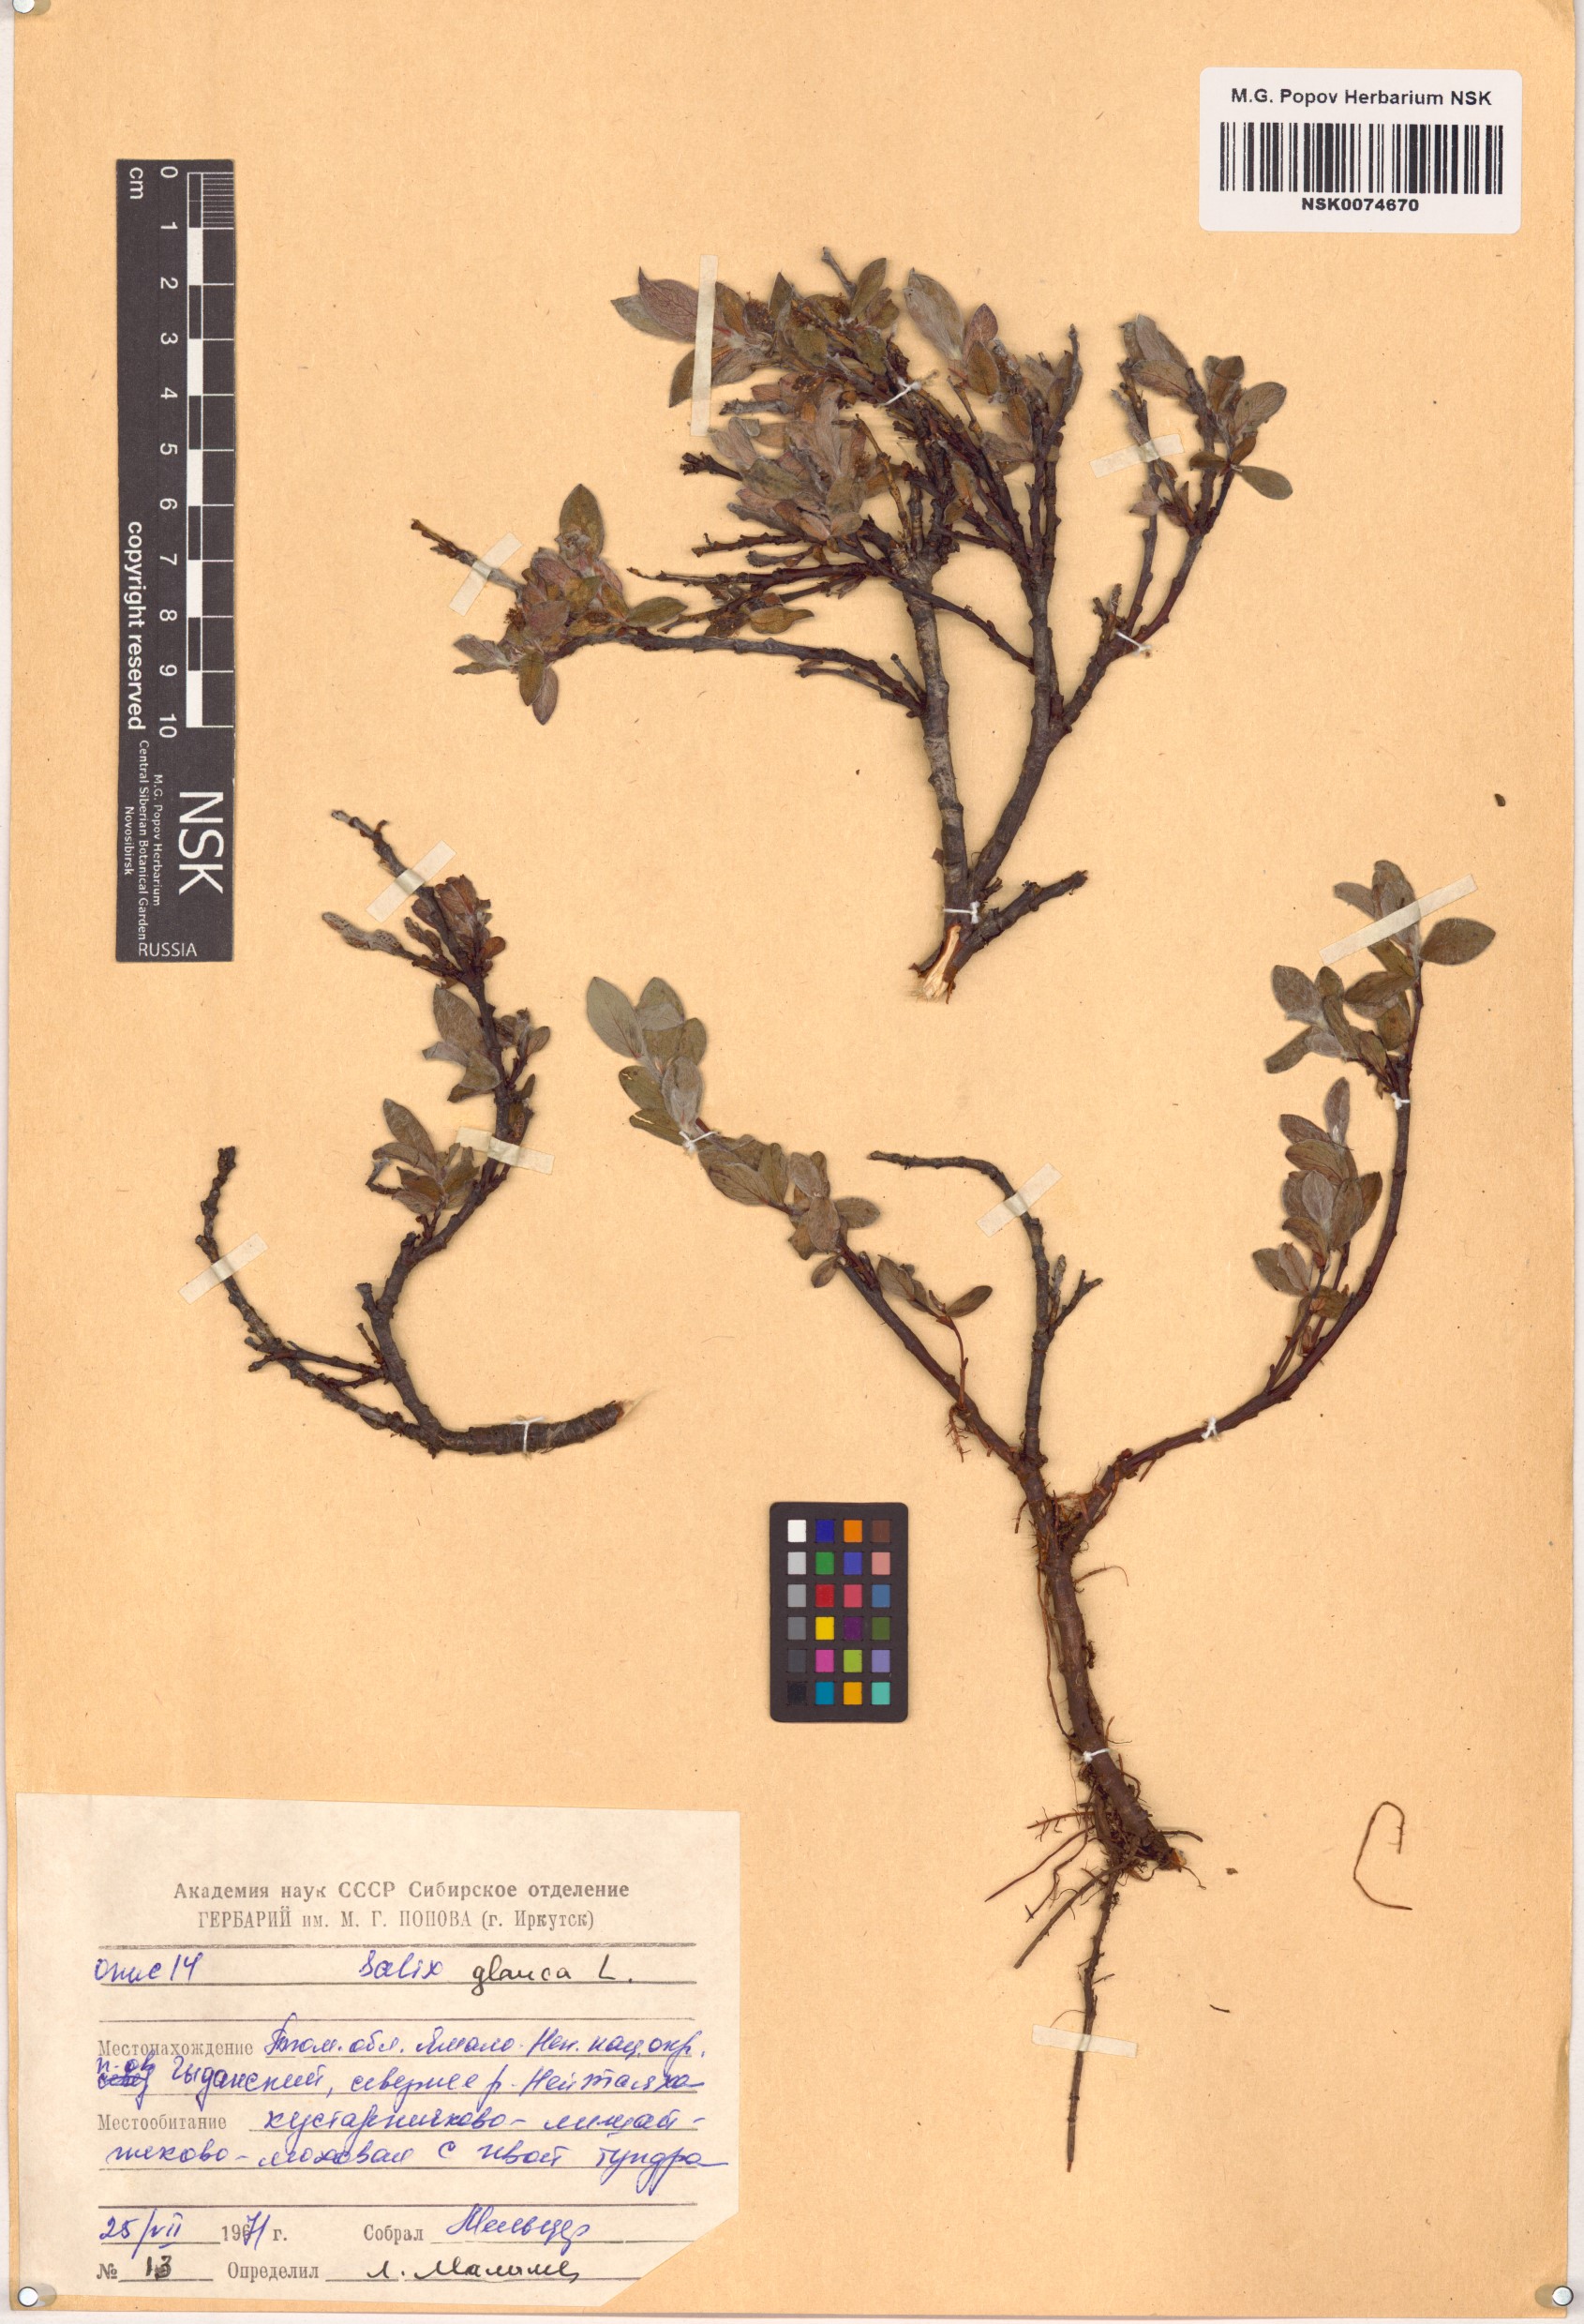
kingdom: Plantae
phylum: Tracheophyta
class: Magnoliopsida
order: Malpighiales
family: Salicaceae
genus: Salix
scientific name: Salix glauca
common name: Glaucous willow
